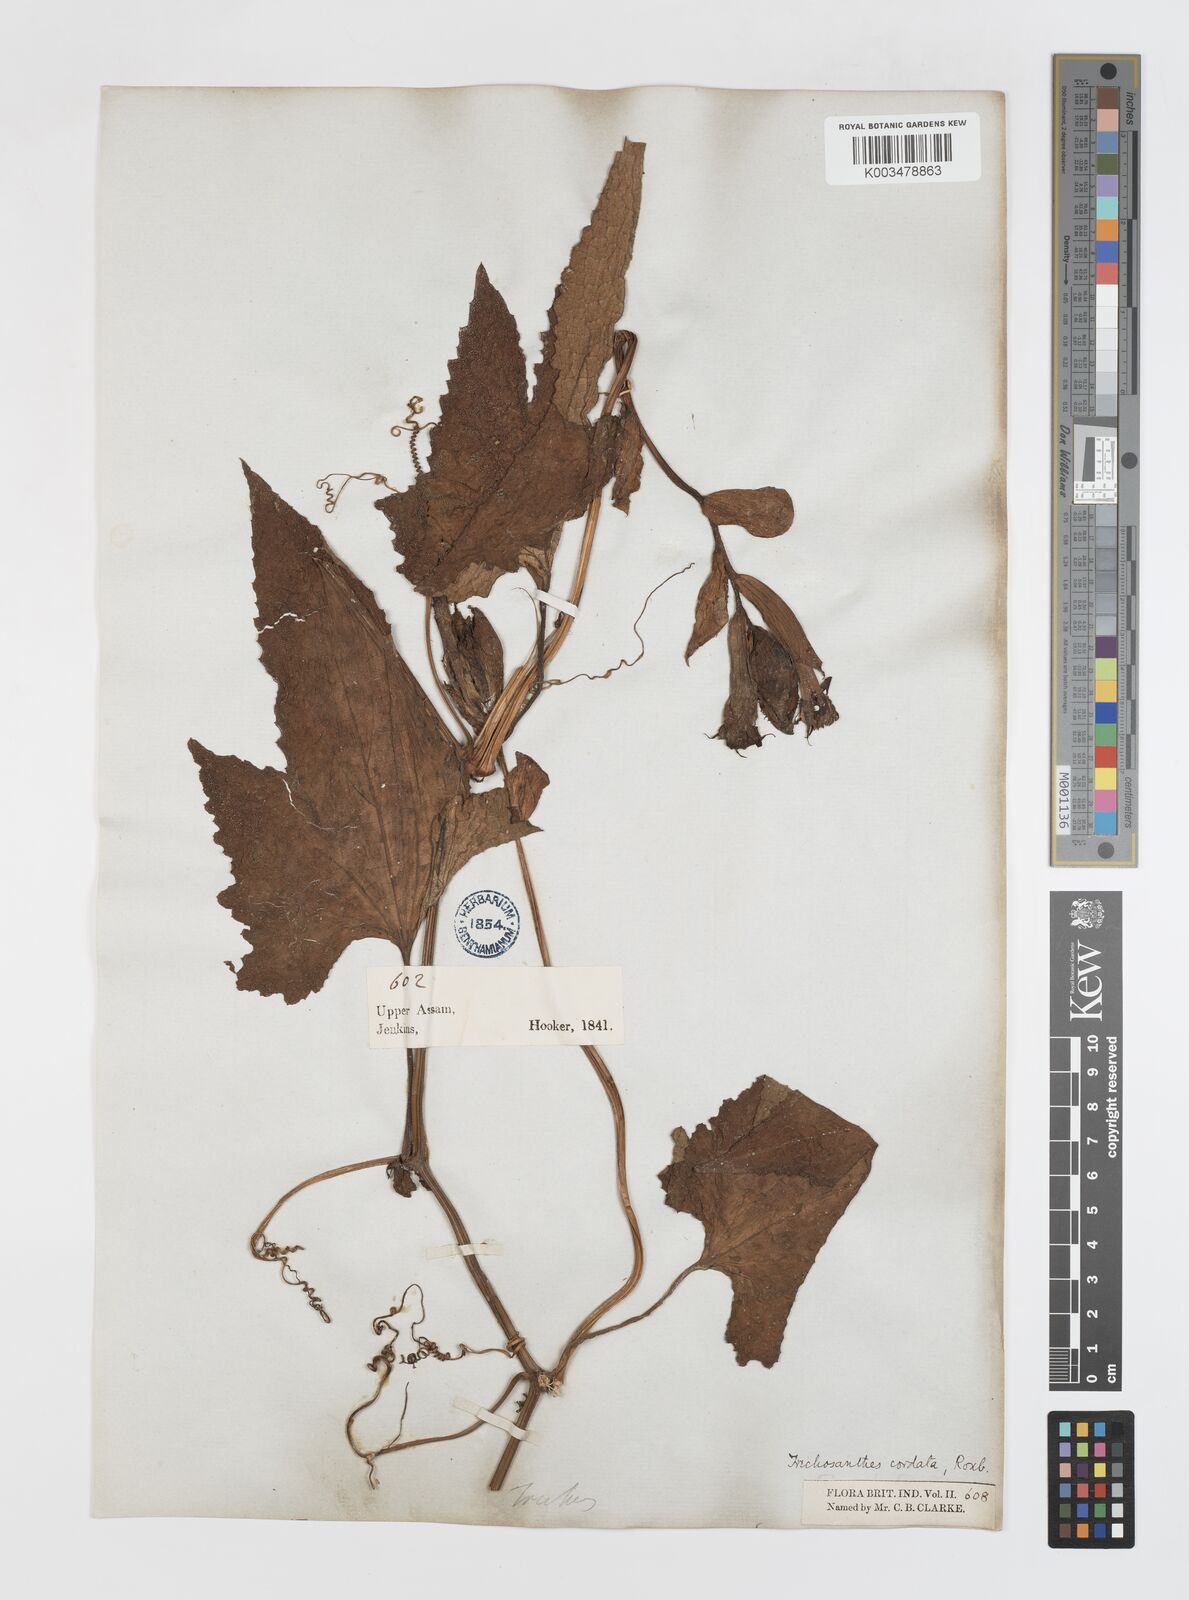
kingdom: Plantae
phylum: Tracheophyta
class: Magnoliopsida
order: Cucurbitales
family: Cucurbitaceae
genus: Trichosanthes
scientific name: Trichosanthes cordata
